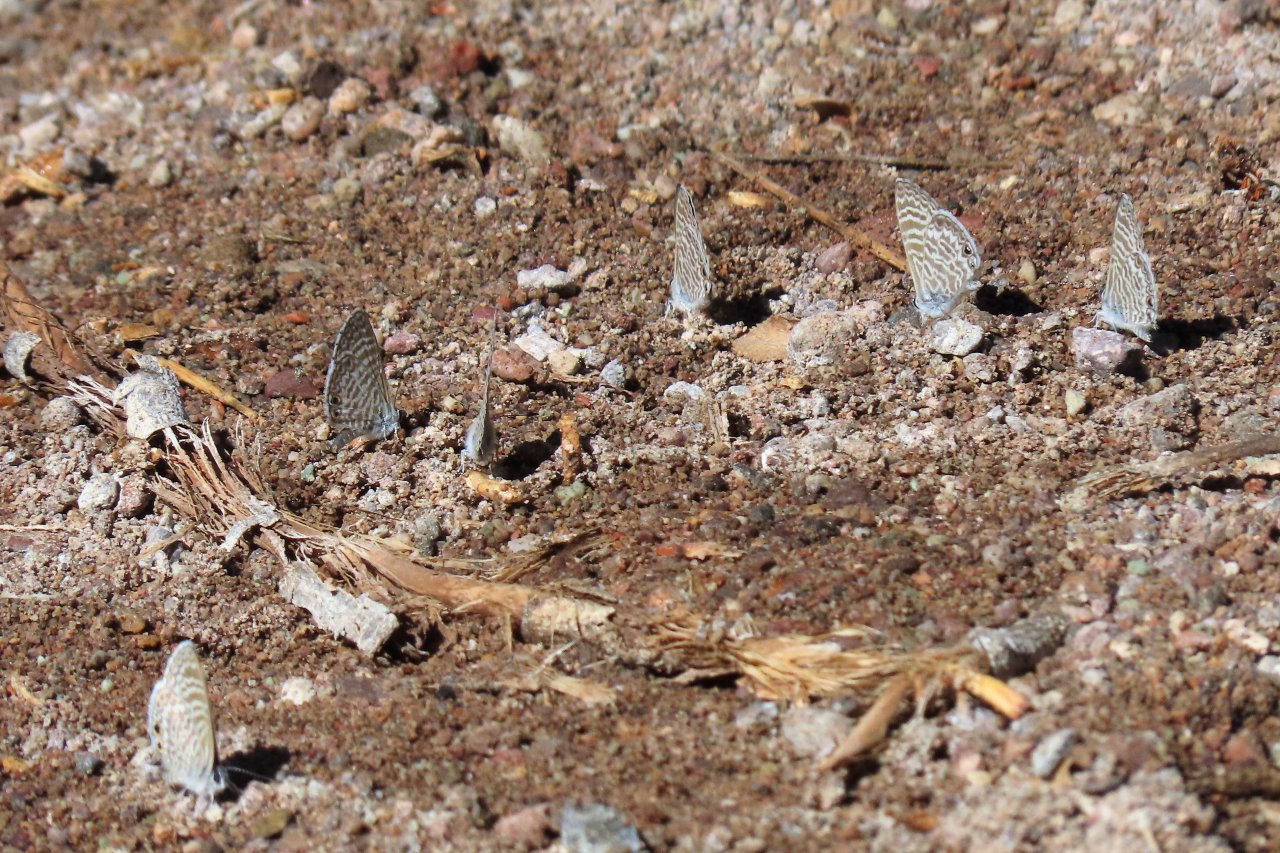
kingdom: Animalia
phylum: Arthropoda
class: Insecta
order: Lepidoptera
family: Lycaenidae
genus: Leptotes
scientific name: Leptotes marina
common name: Marine Blue
